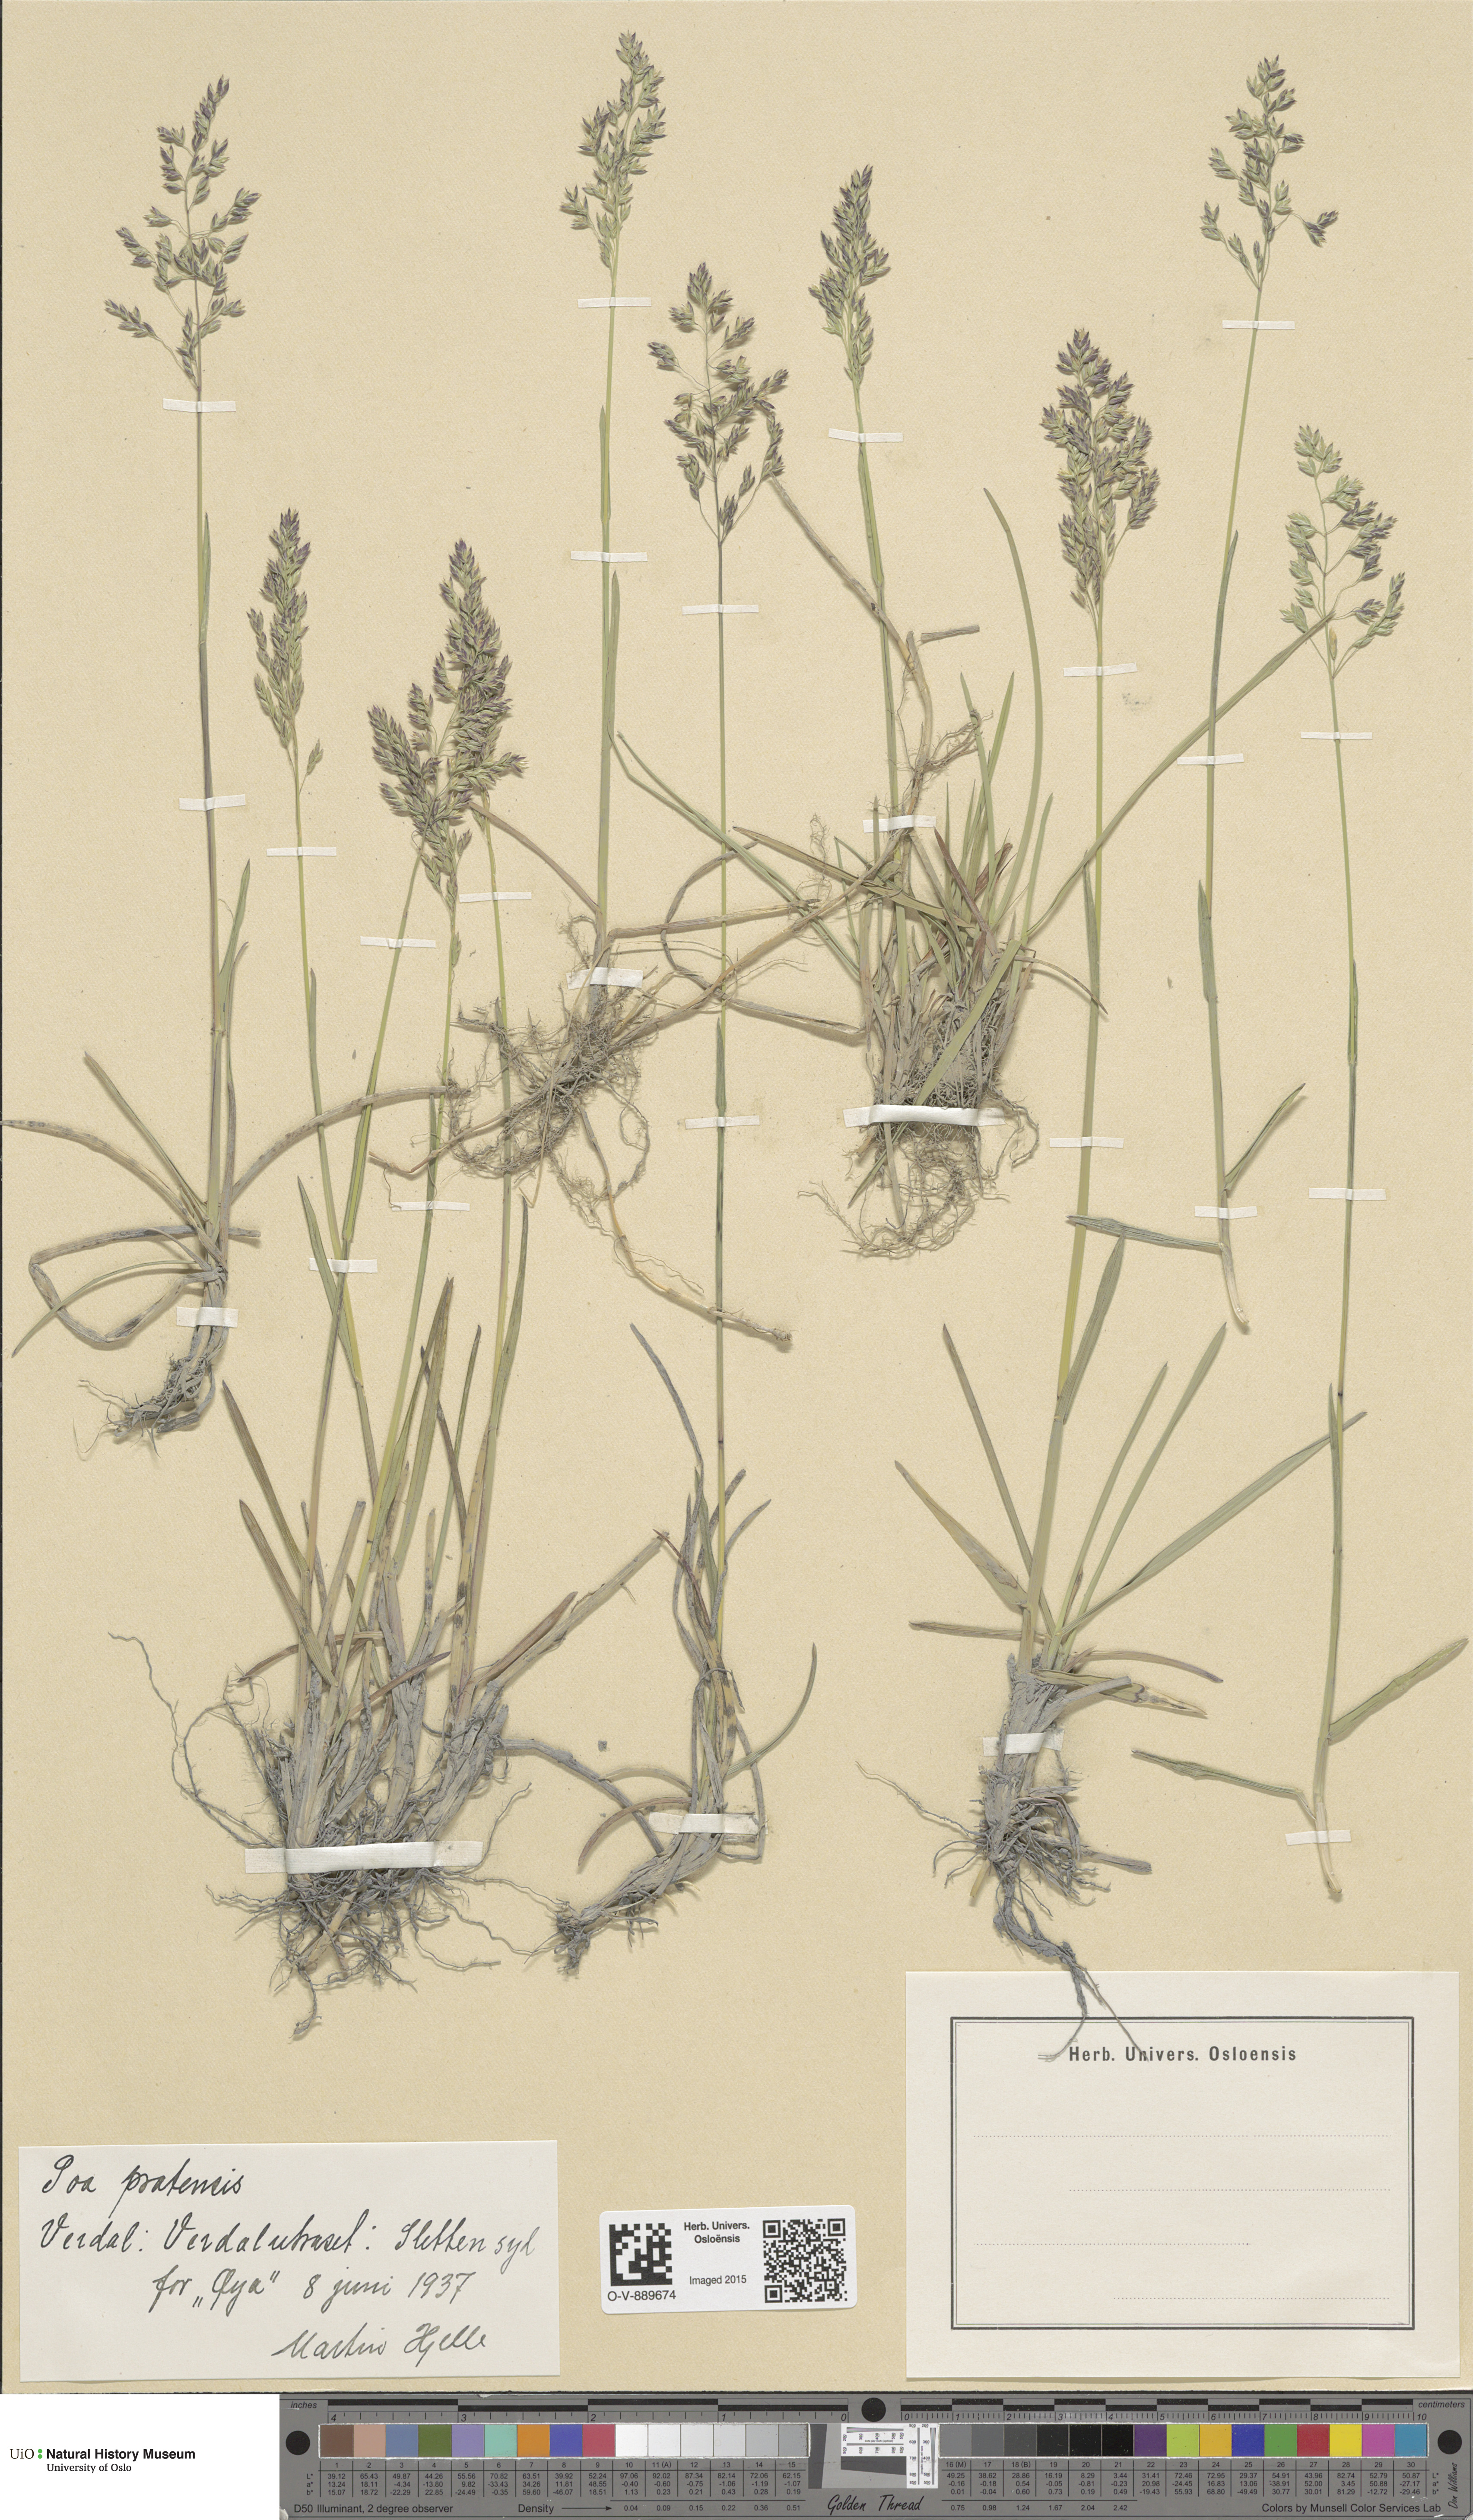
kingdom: Plantae
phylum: Tracheophyta
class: Liliopsida
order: Poales
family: Poaceae
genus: Poa
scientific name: Poa pratensis
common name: Kentucky bluegrass
